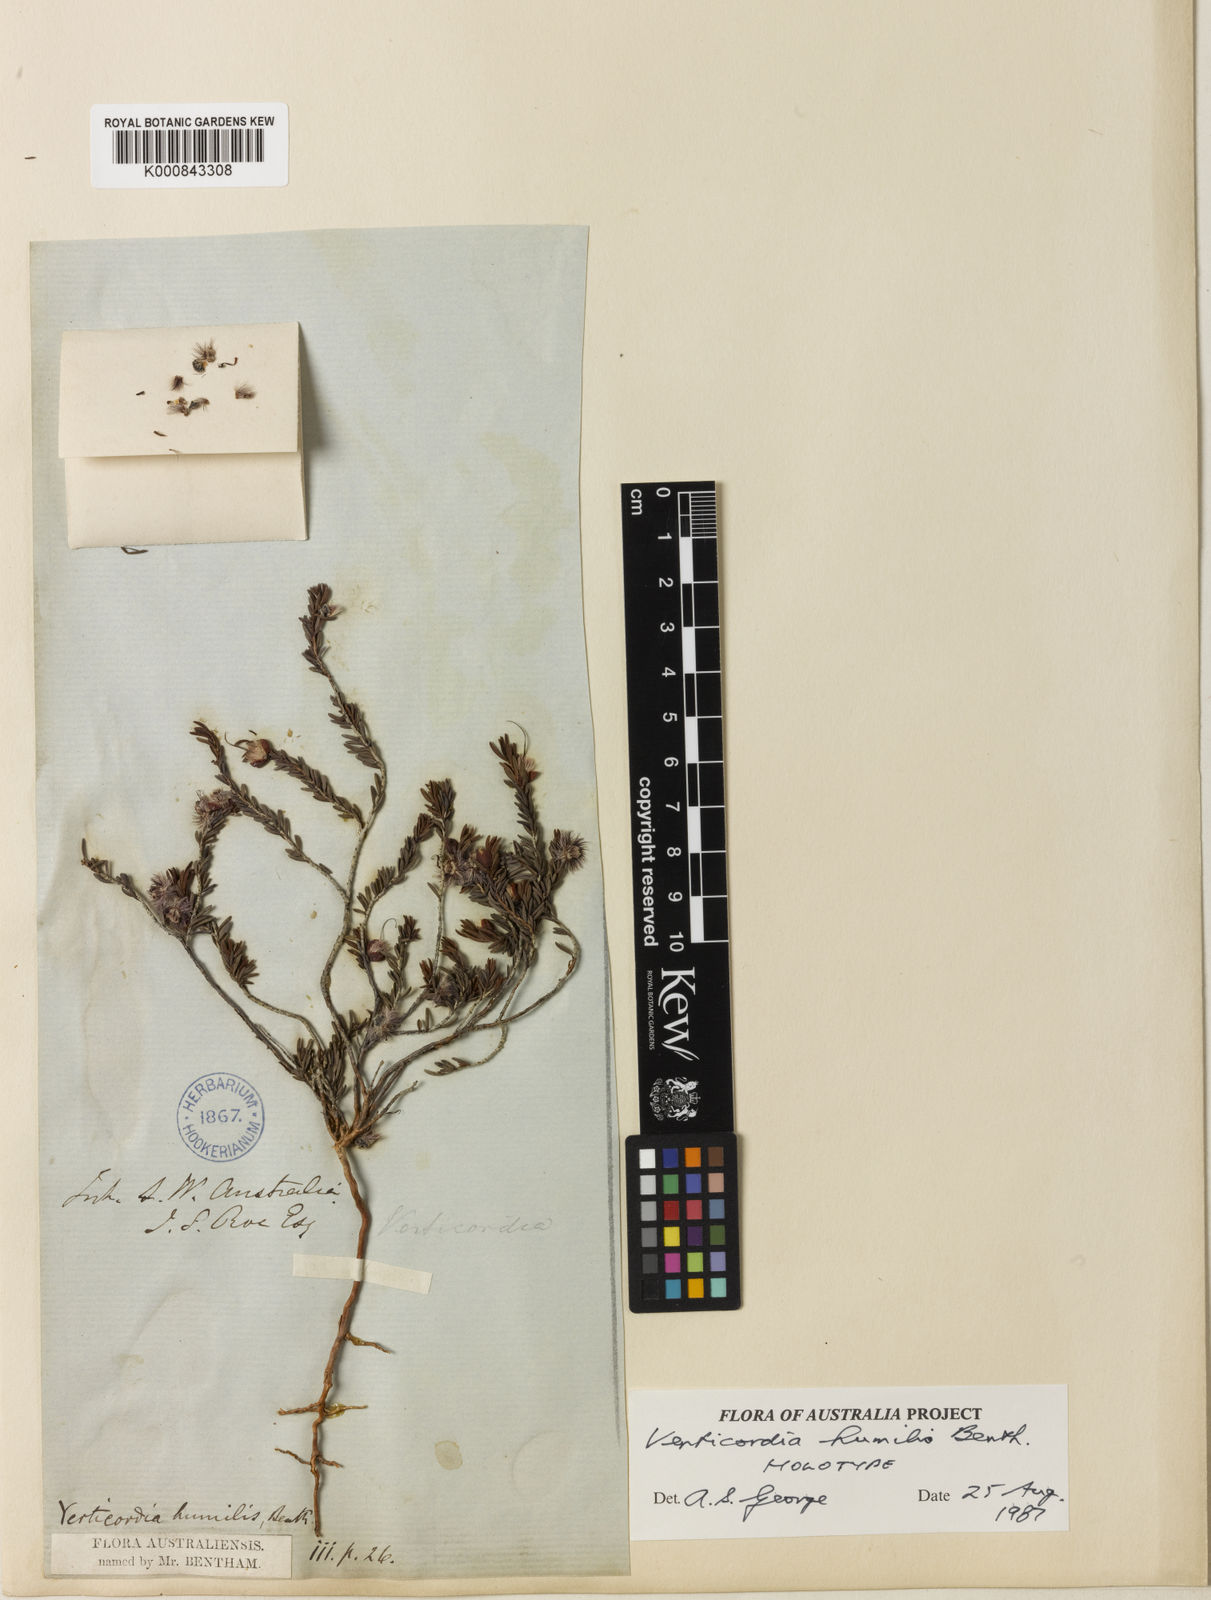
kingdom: Plantae
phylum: Tracheophyta
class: Magnoliopsida
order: Myrtales
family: Myrtaceae
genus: Verticordia
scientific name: Verticordia humilis
